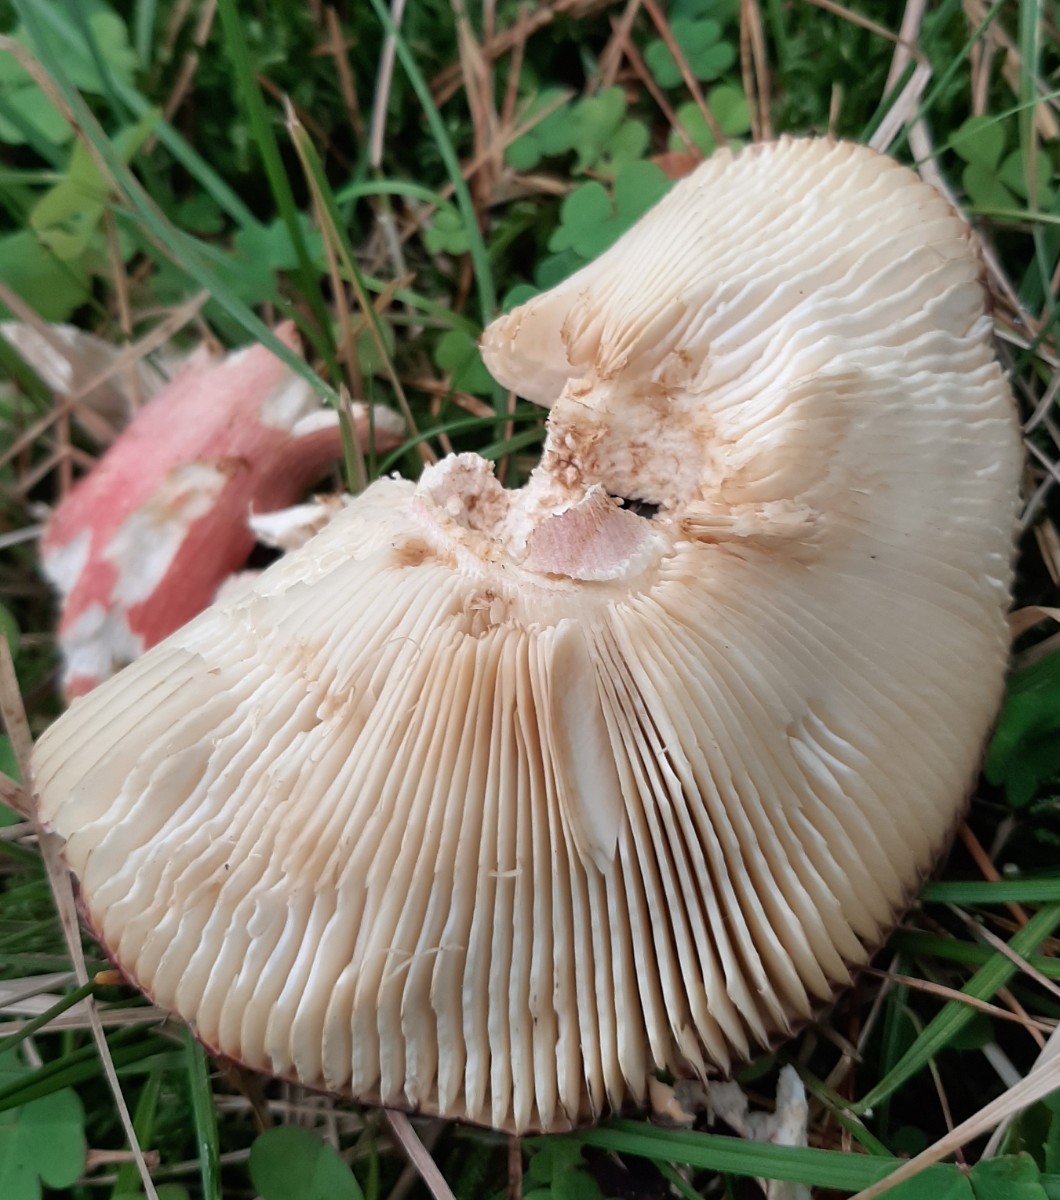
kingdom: Fungi
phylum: Basidiomycota
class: Agaricomycetes
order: Russulales
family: Russulaceae
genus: Russula
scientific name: Russula xerampelina
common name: hummer-skørhat
